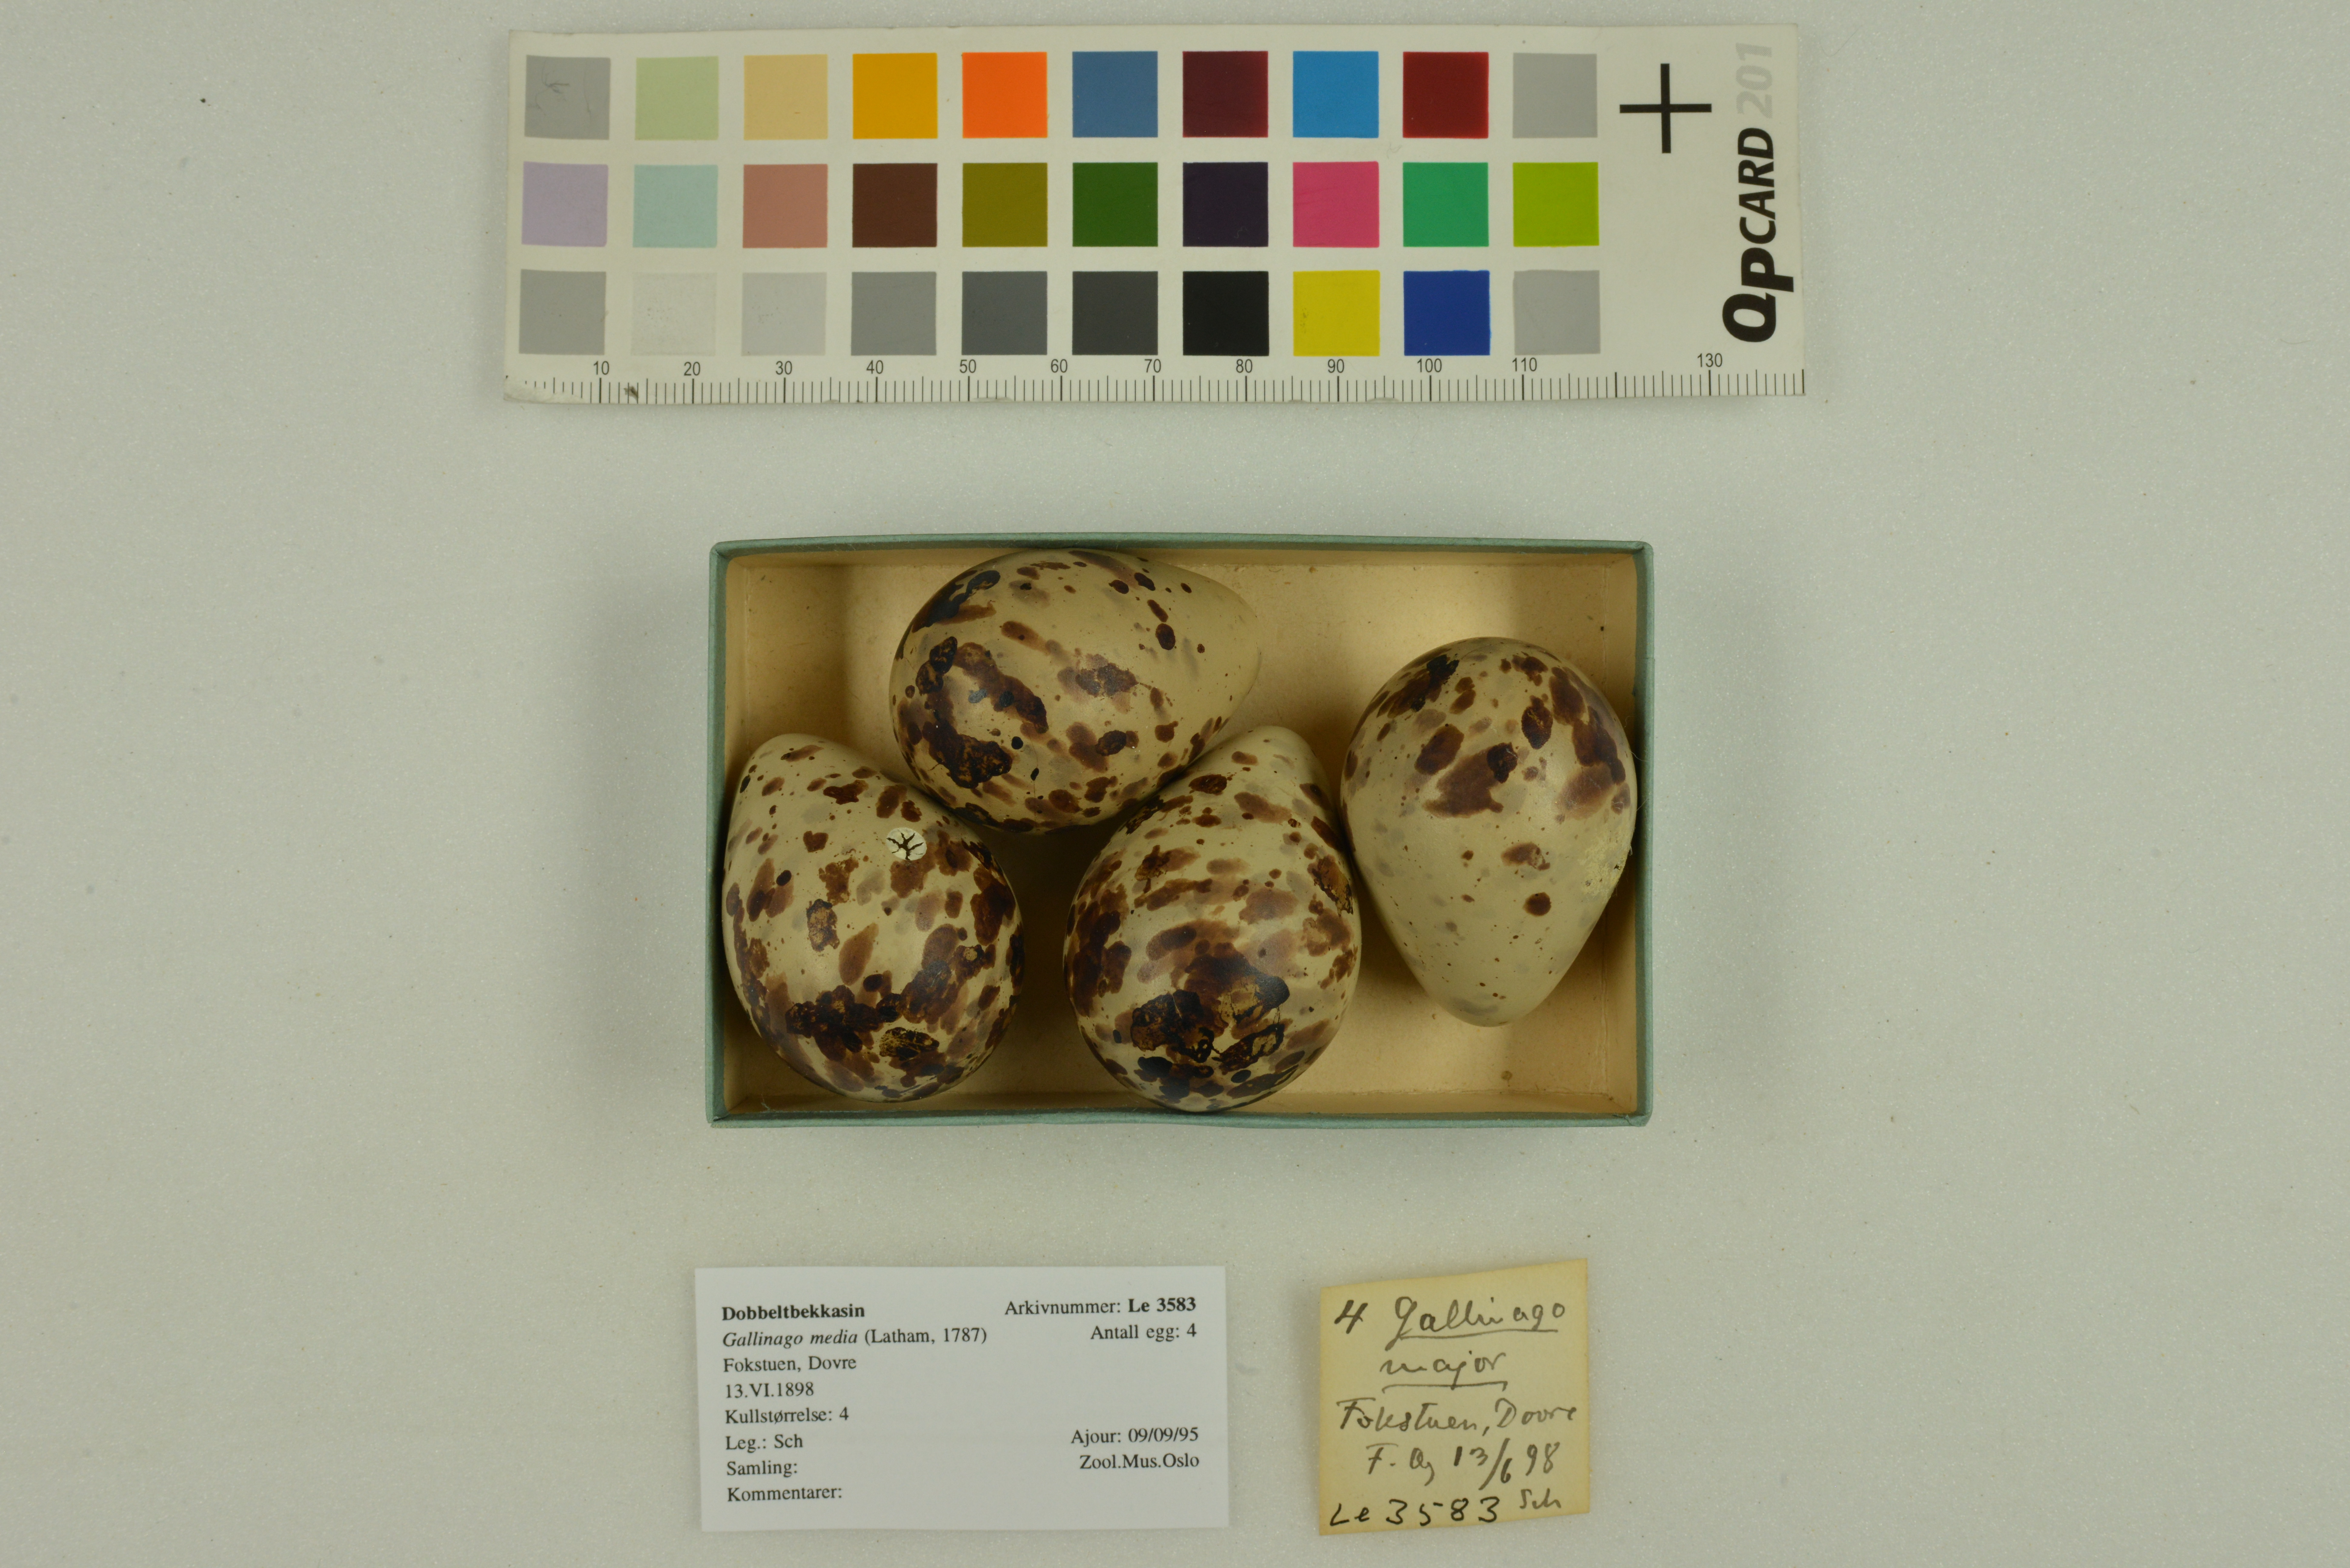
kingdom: Animalia
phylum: Chordata
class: Aves
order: Charadriiformes
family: Scolopacidae
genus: Gallinago
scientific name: Gallinago media
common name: Great snipe
